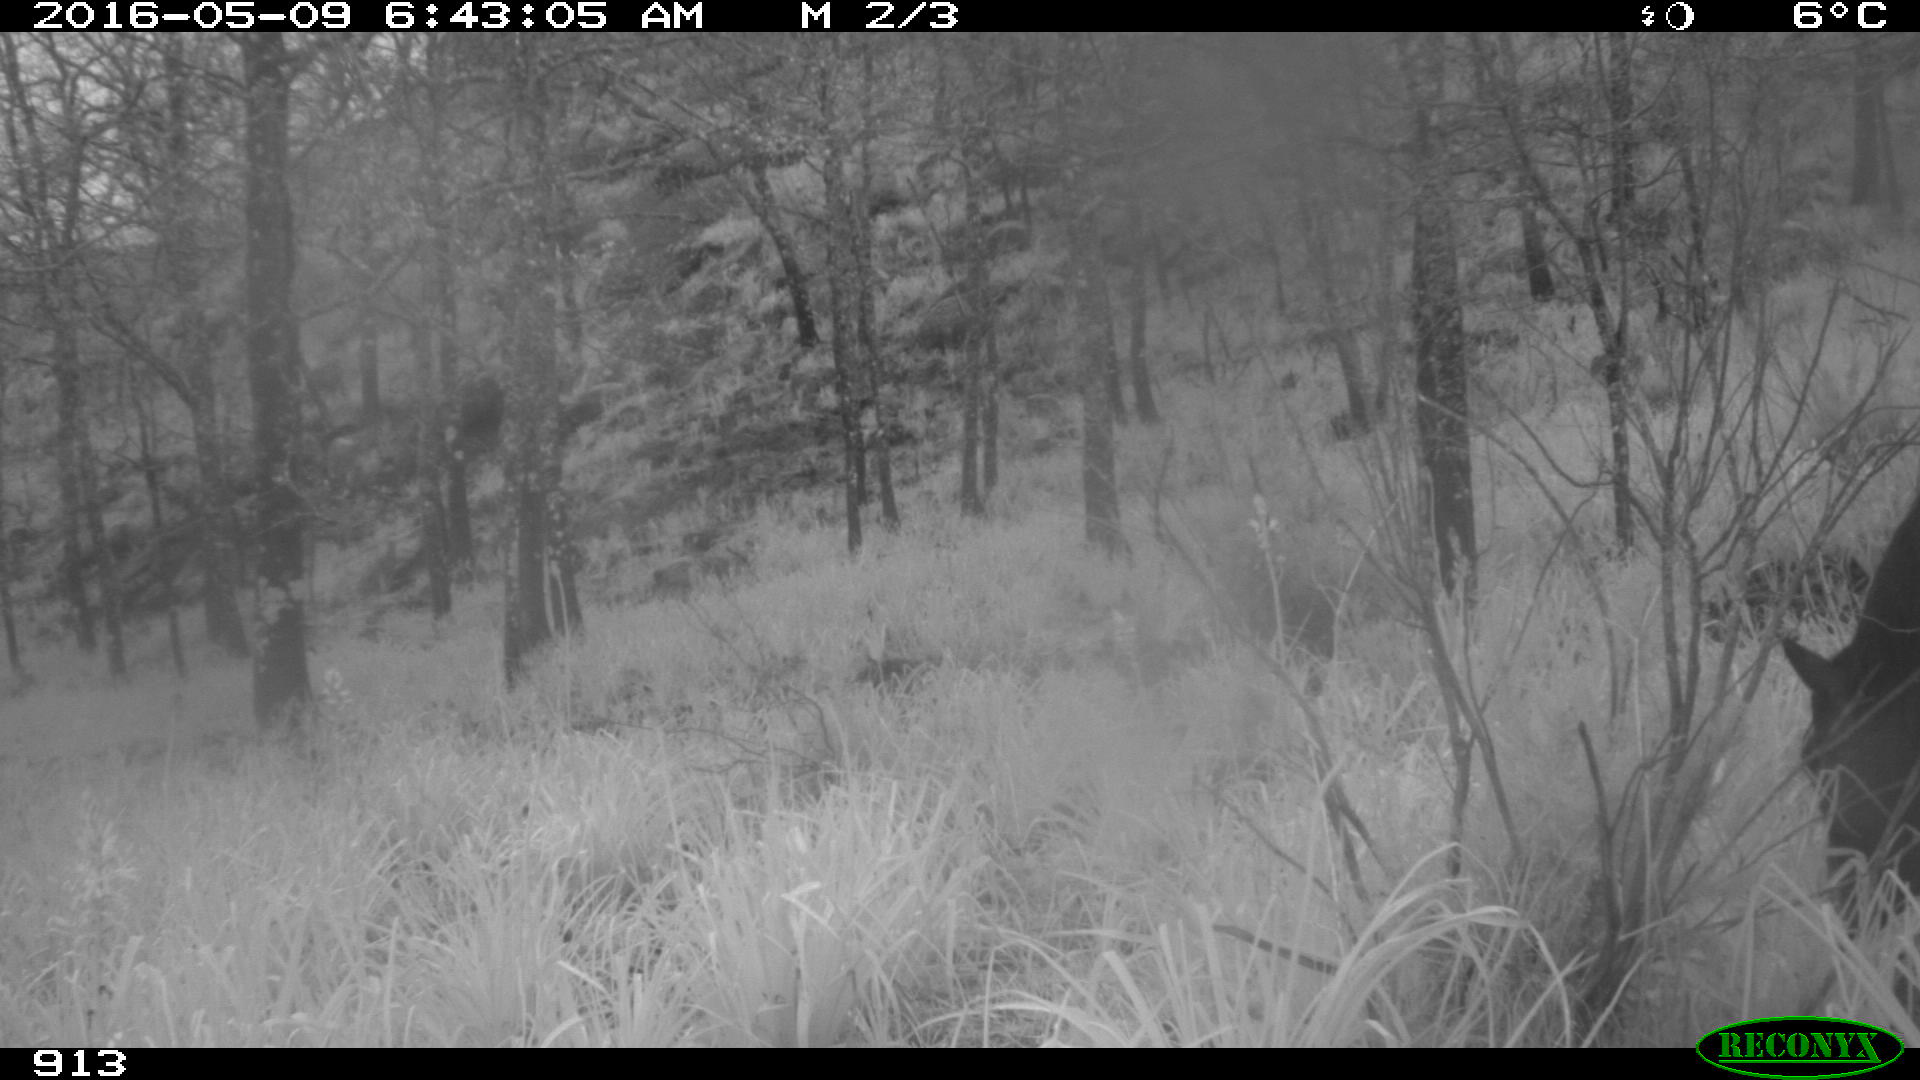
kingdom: Animalia
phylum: Chordata
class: Mammalia
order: Perissodactyla
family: Equidae
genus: Equus
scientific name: Equus caballus
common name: Horse
